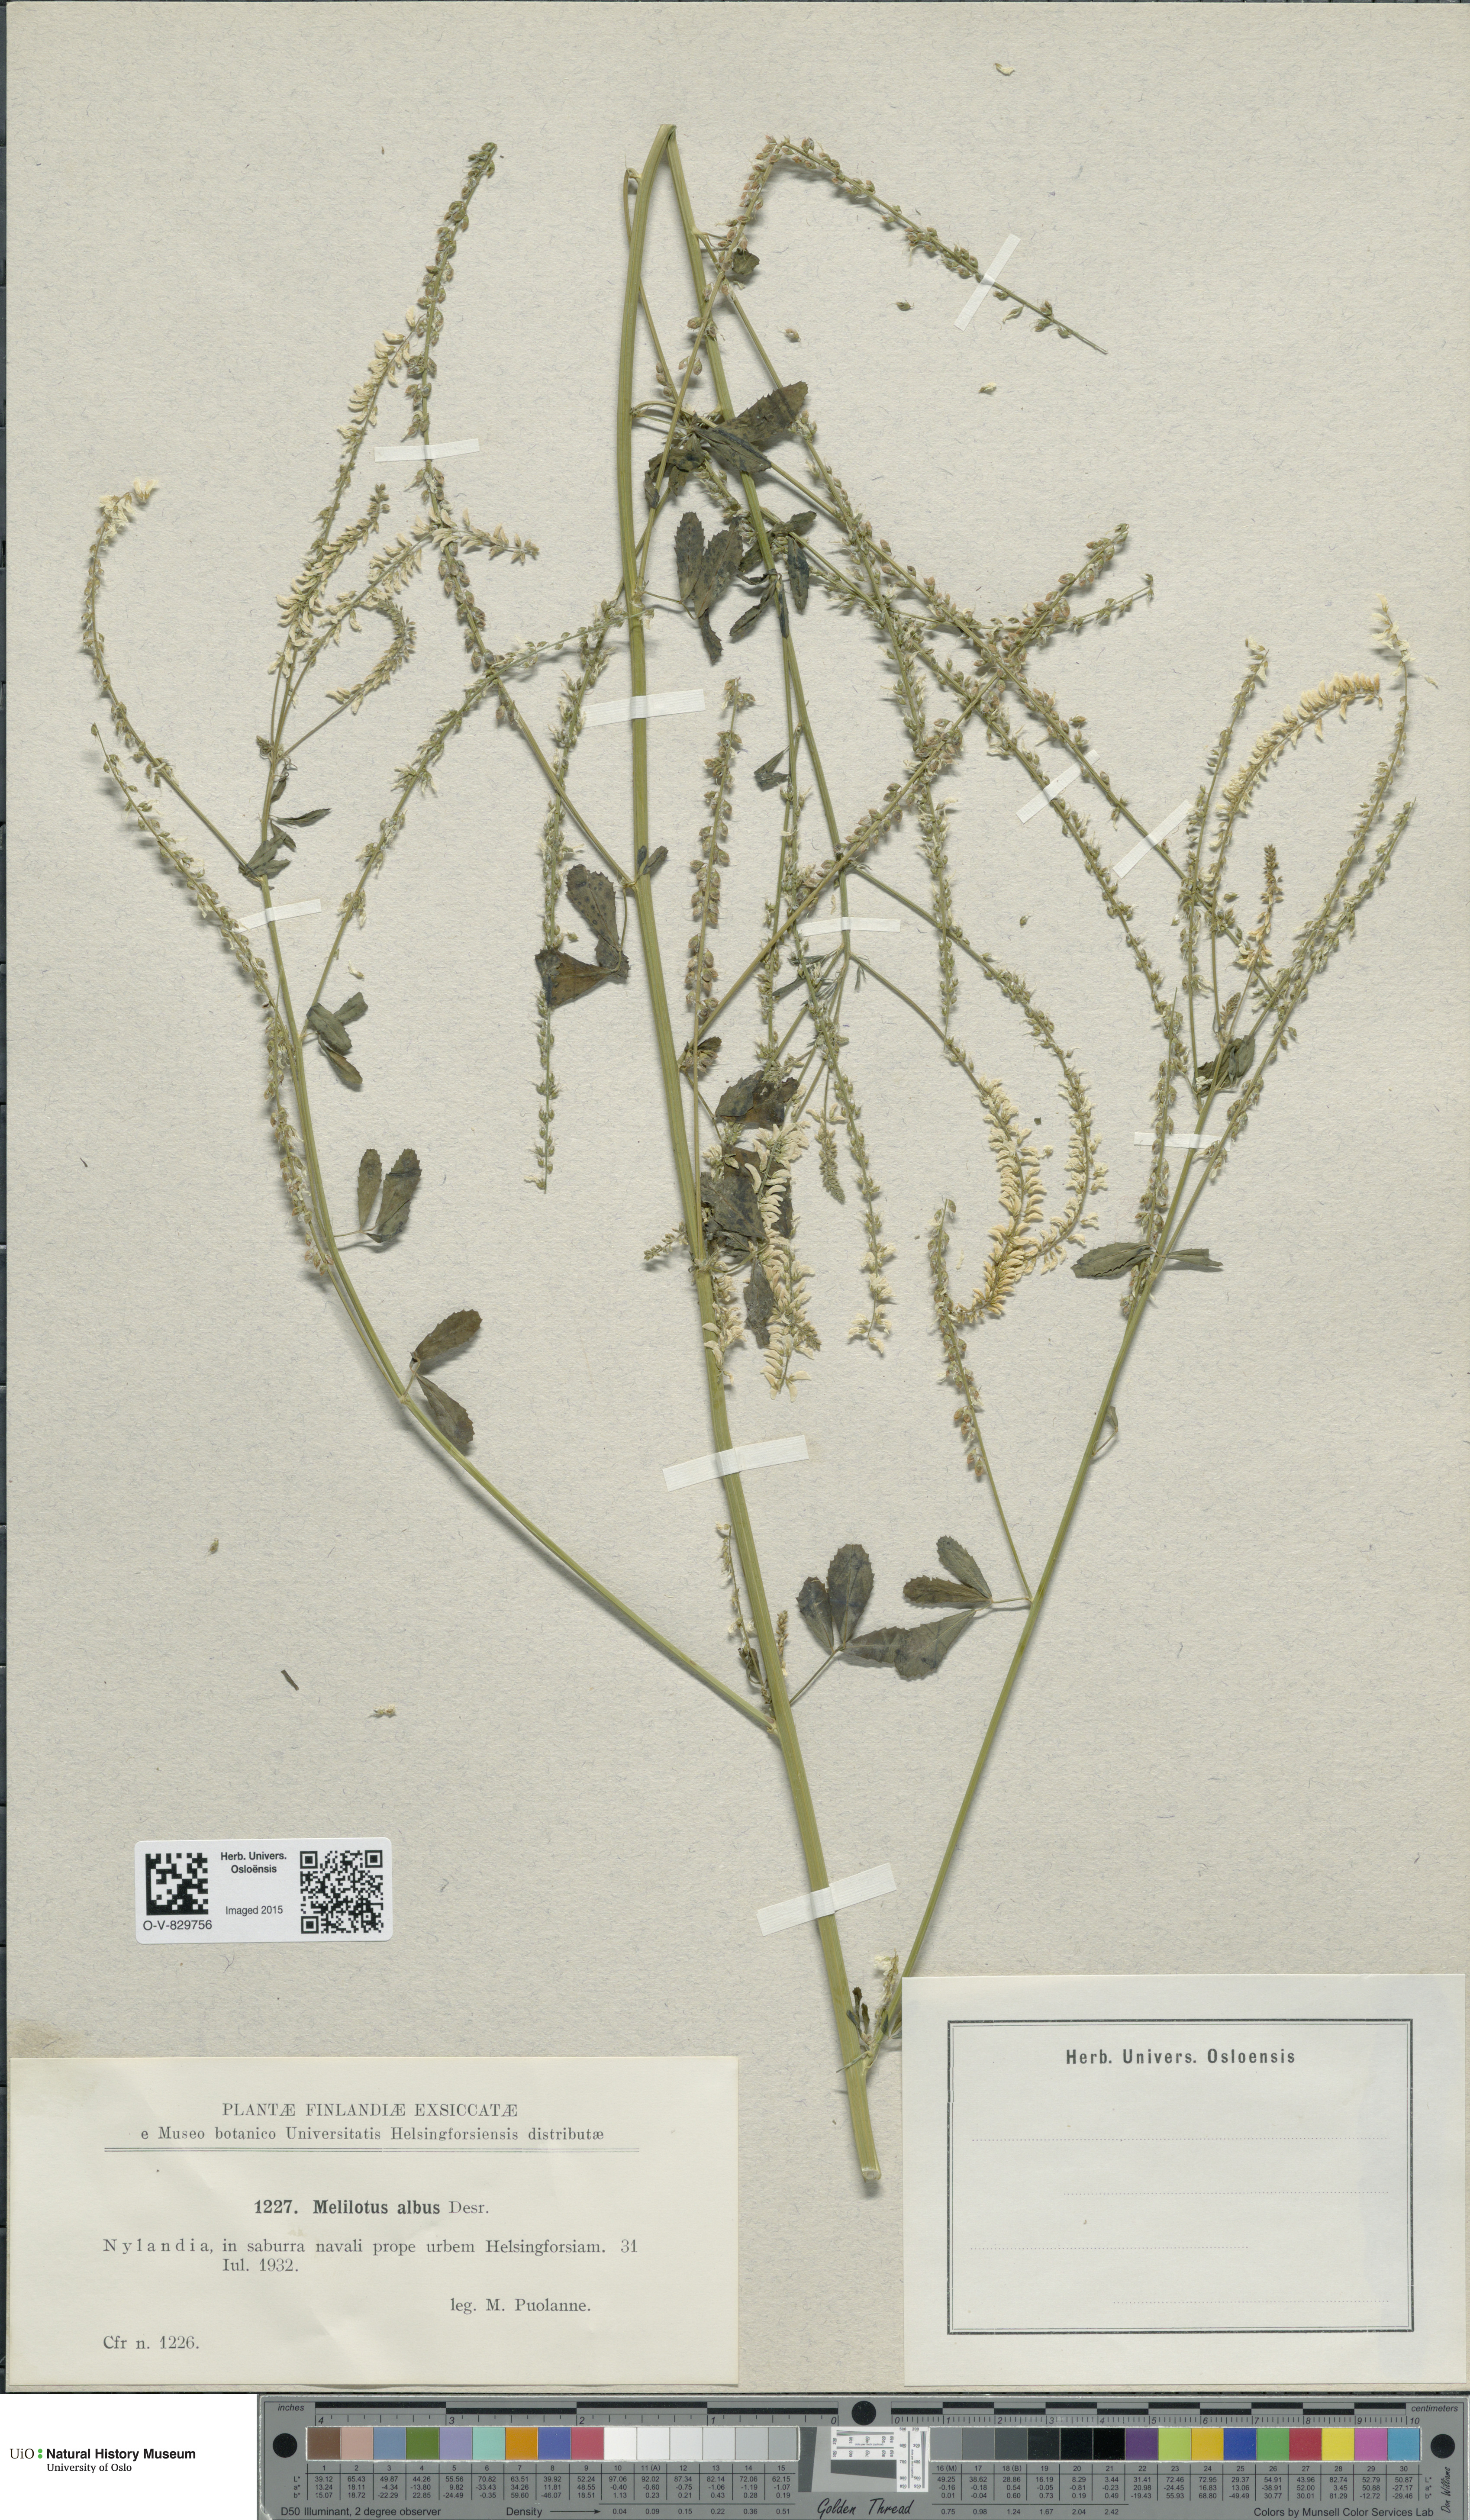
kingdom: Plantae
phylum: Tracheophyta
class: Magnoliopsida
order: Fabales
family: Fabaceae
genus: Melilotus
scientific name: Melilotus albus
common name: White melilot
